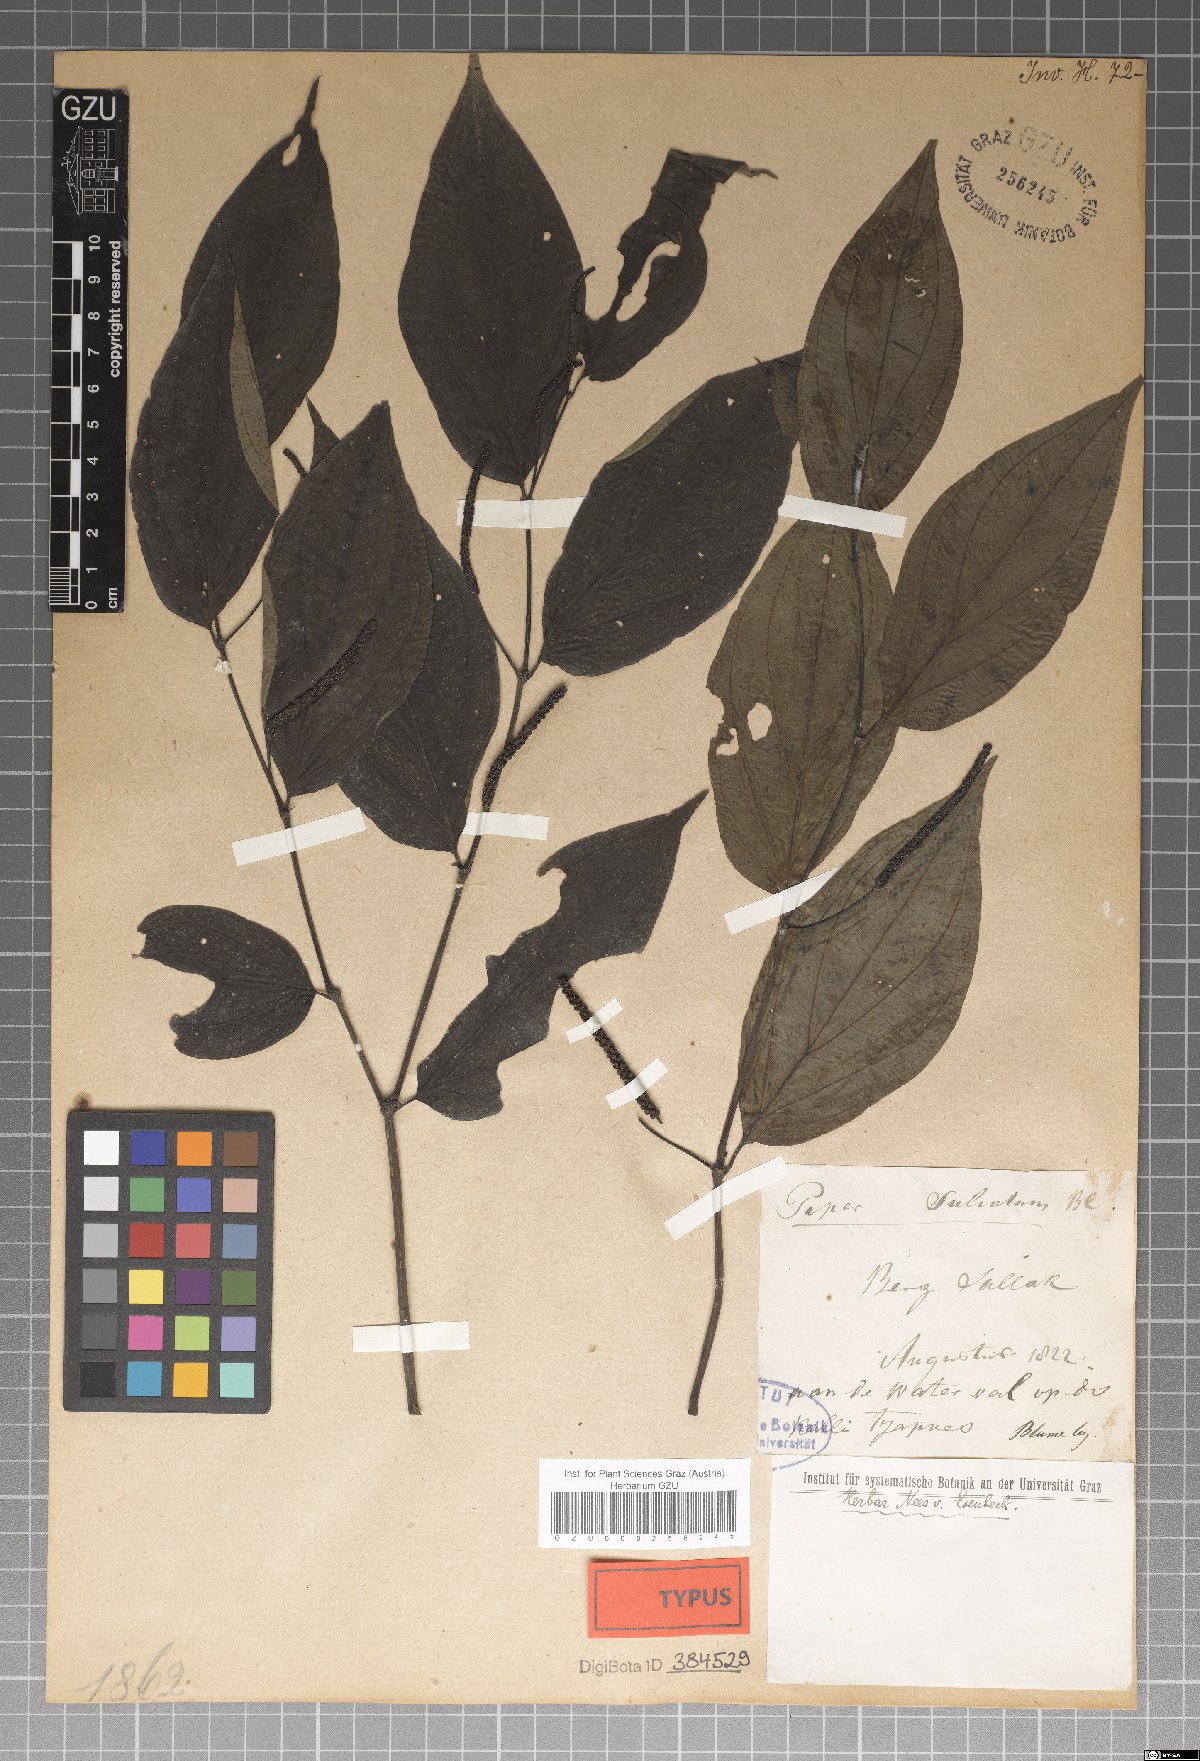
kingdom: Plantae
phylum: Tracheophyta
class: Magnoliopsida
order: Piperales
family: Piperaceae
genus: Piper
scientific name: Piper sulcatum
